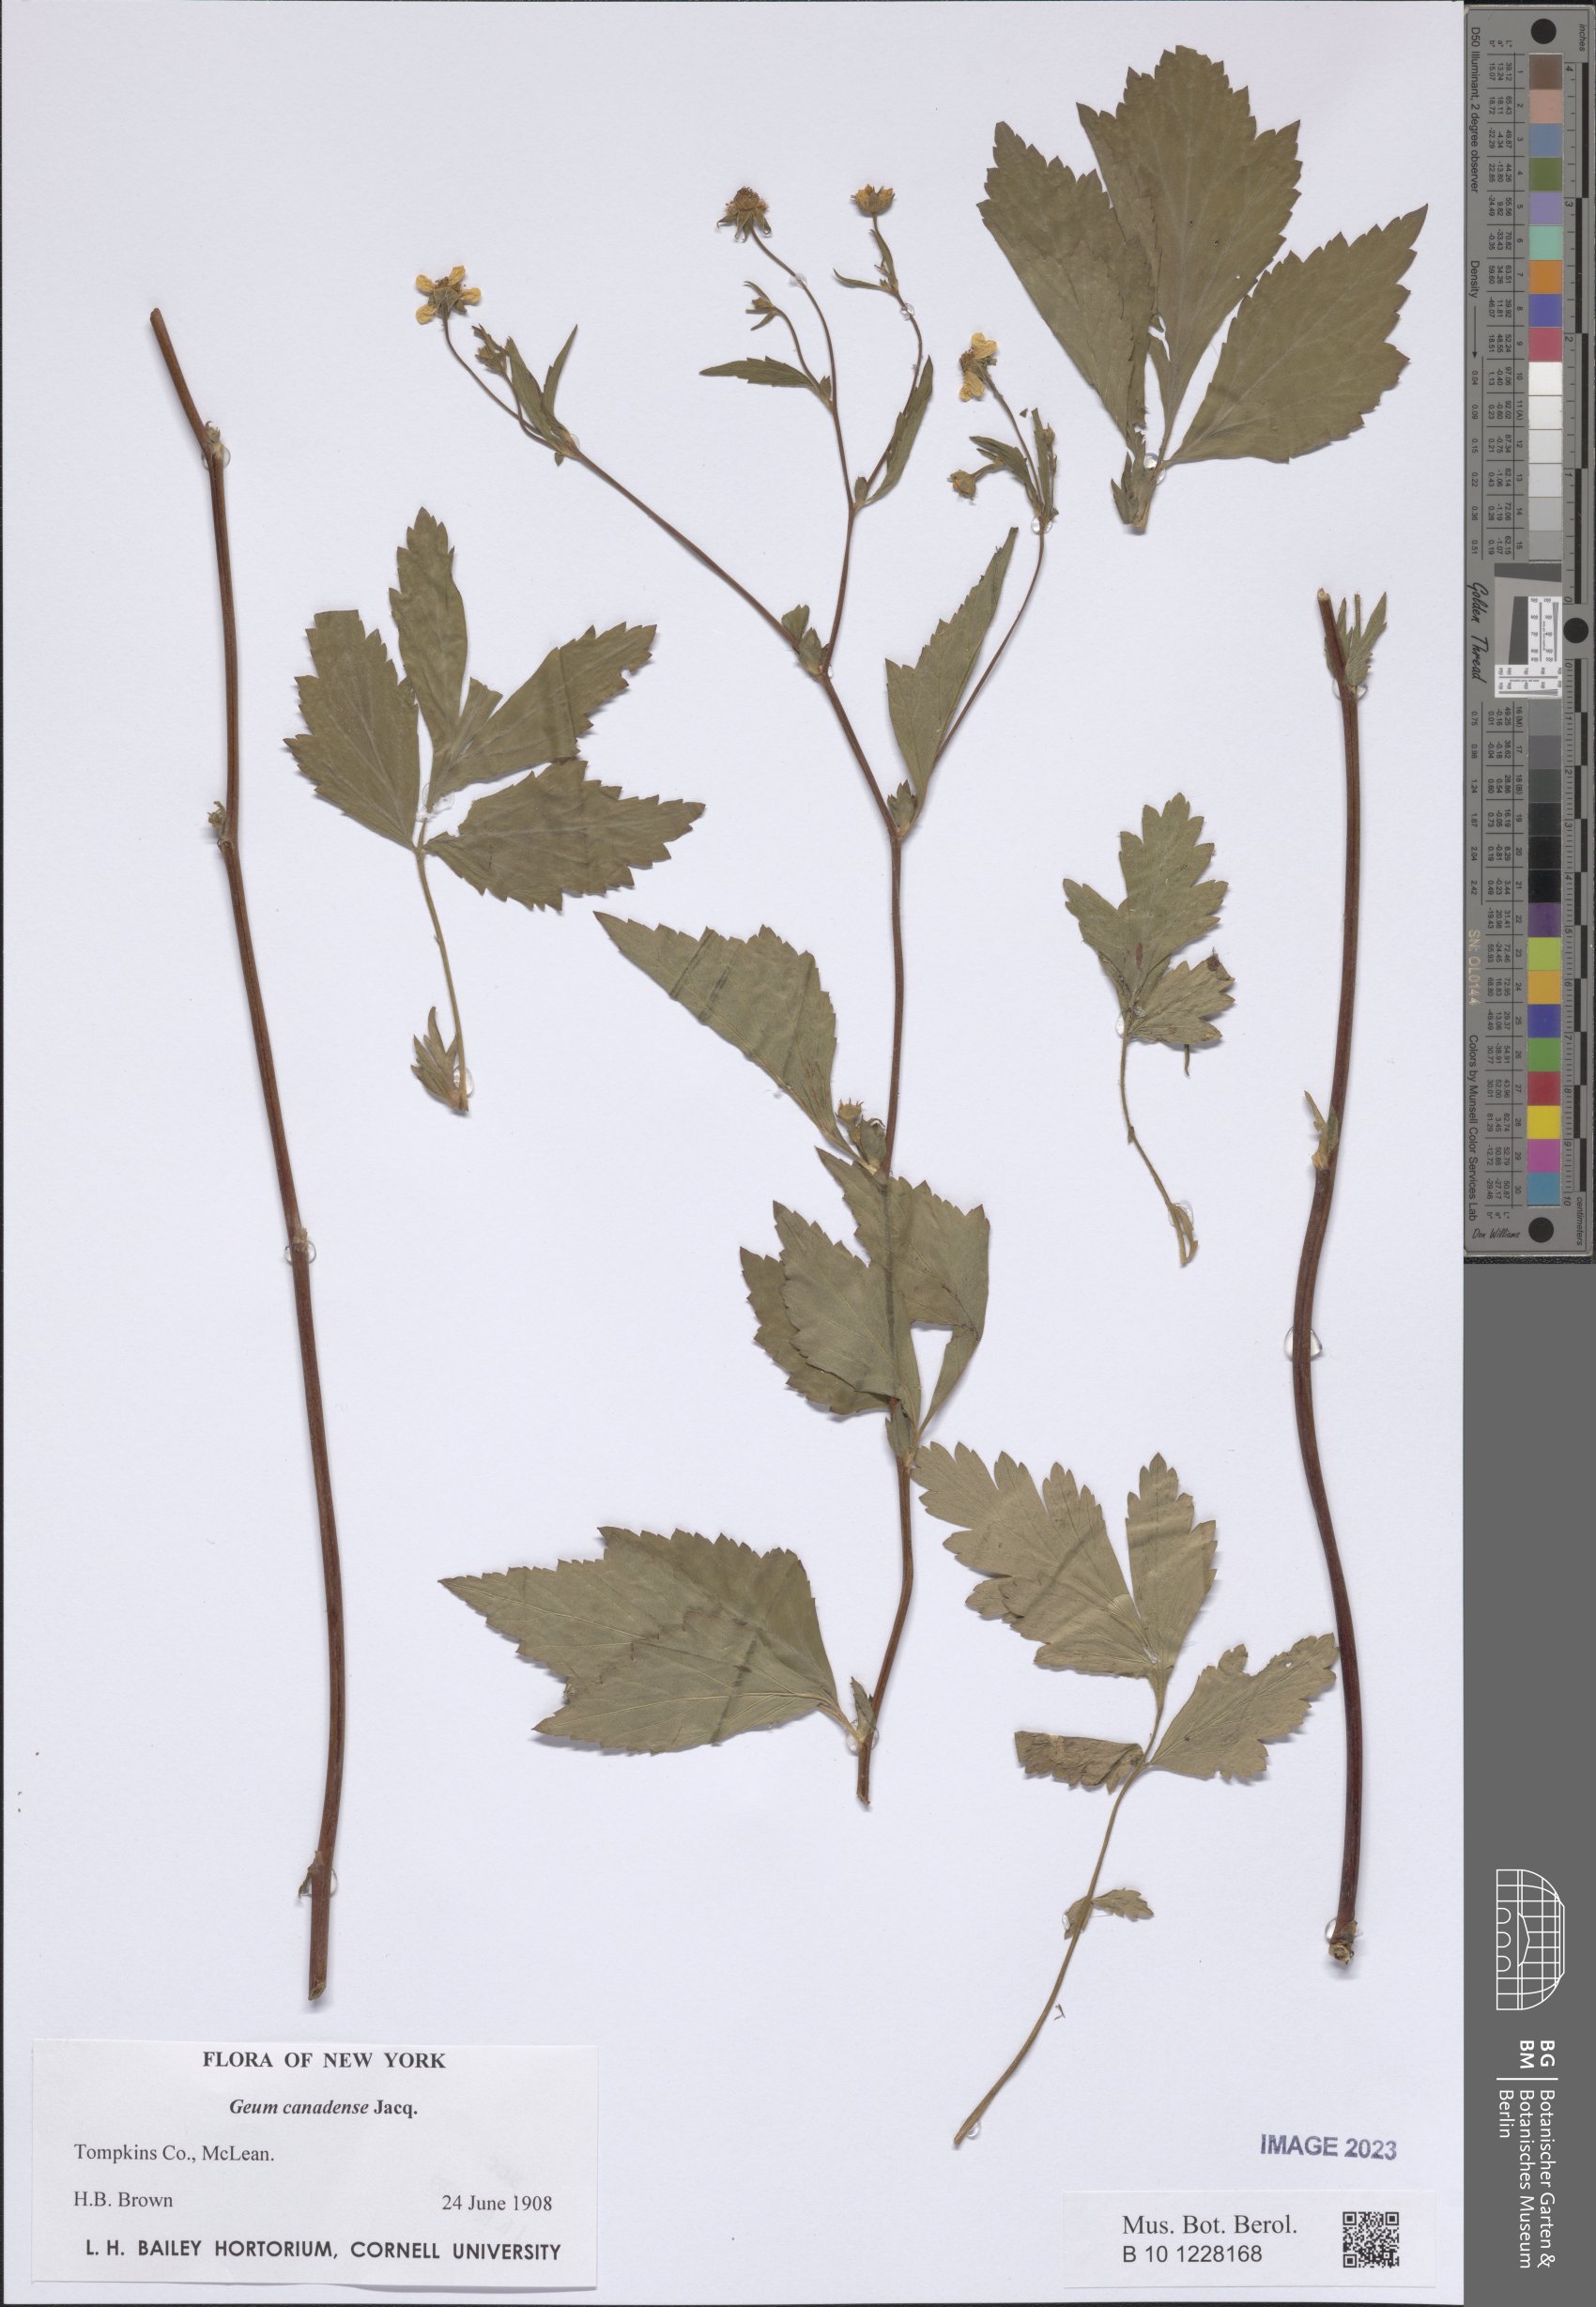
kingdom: Plantae
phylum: Tracheophyta
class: Magnoliopsida
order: Rosales
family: Rosaceae
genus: Geum
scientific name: Geum canadense
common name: White avens
